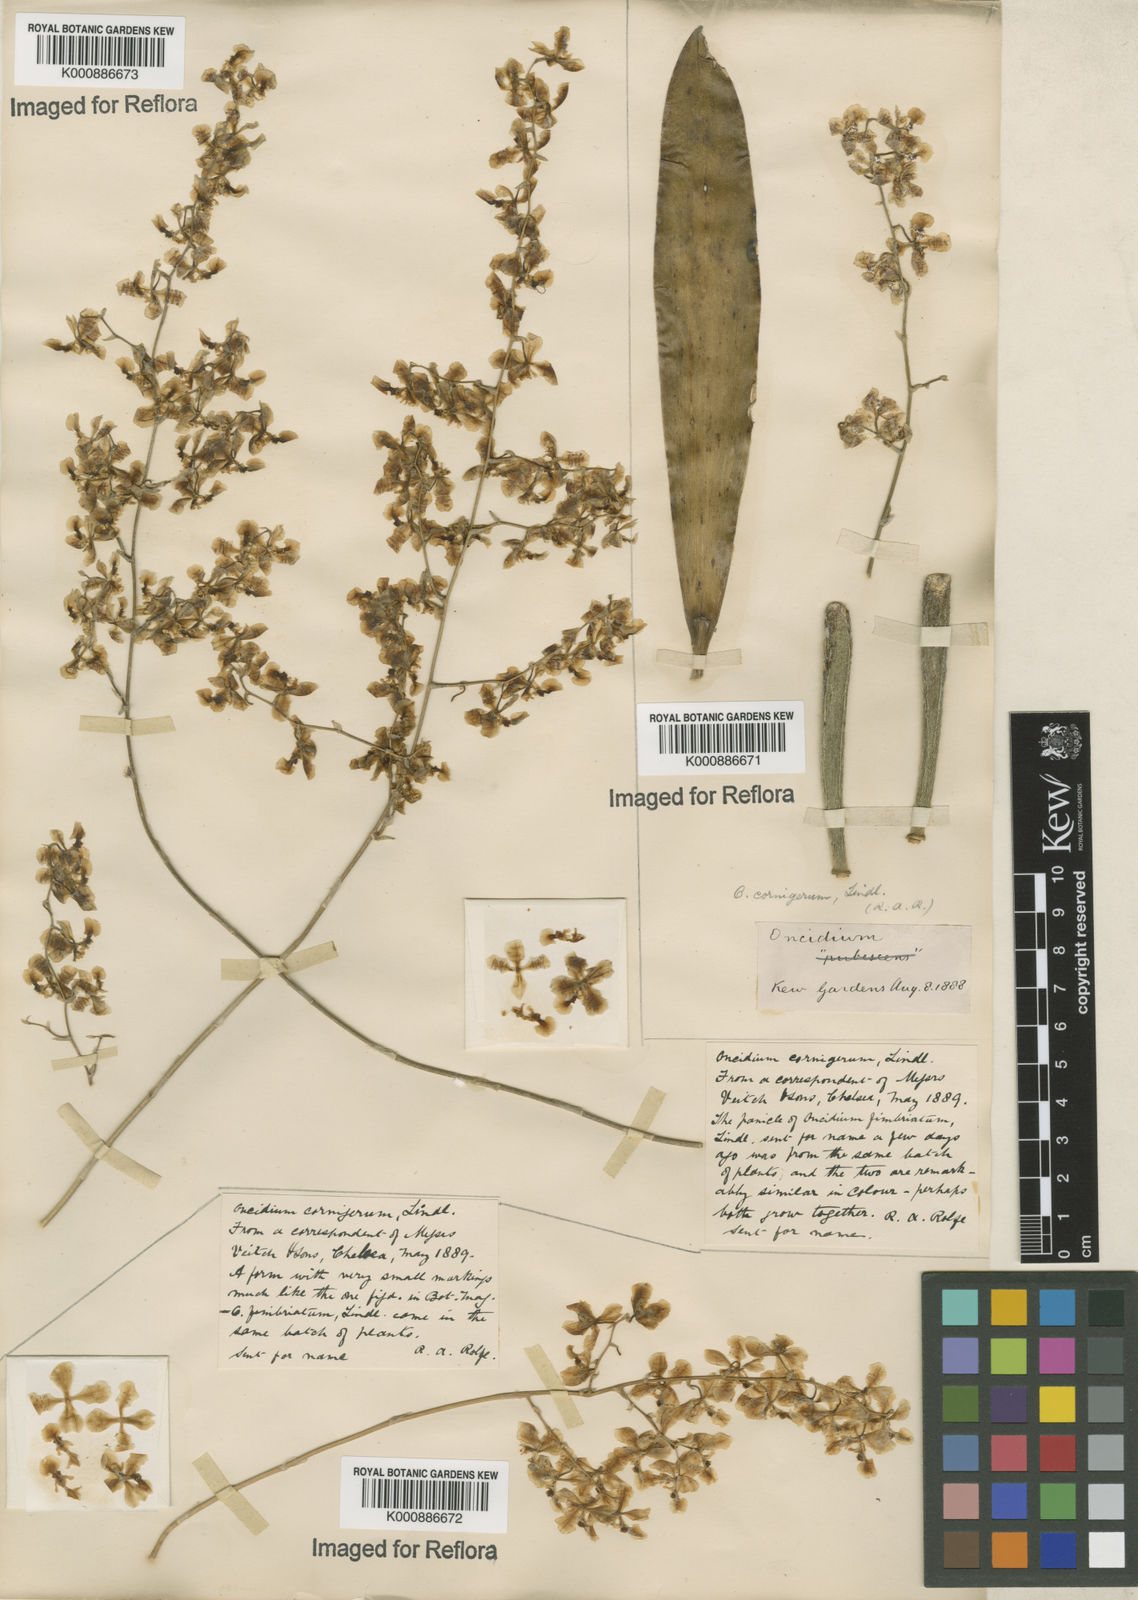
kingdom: Plantae
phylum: Tracheophyta
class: Liliopsida
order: Asparagales
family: Orchidaceae
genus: Gomesa
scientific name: Gomesa cornigera
